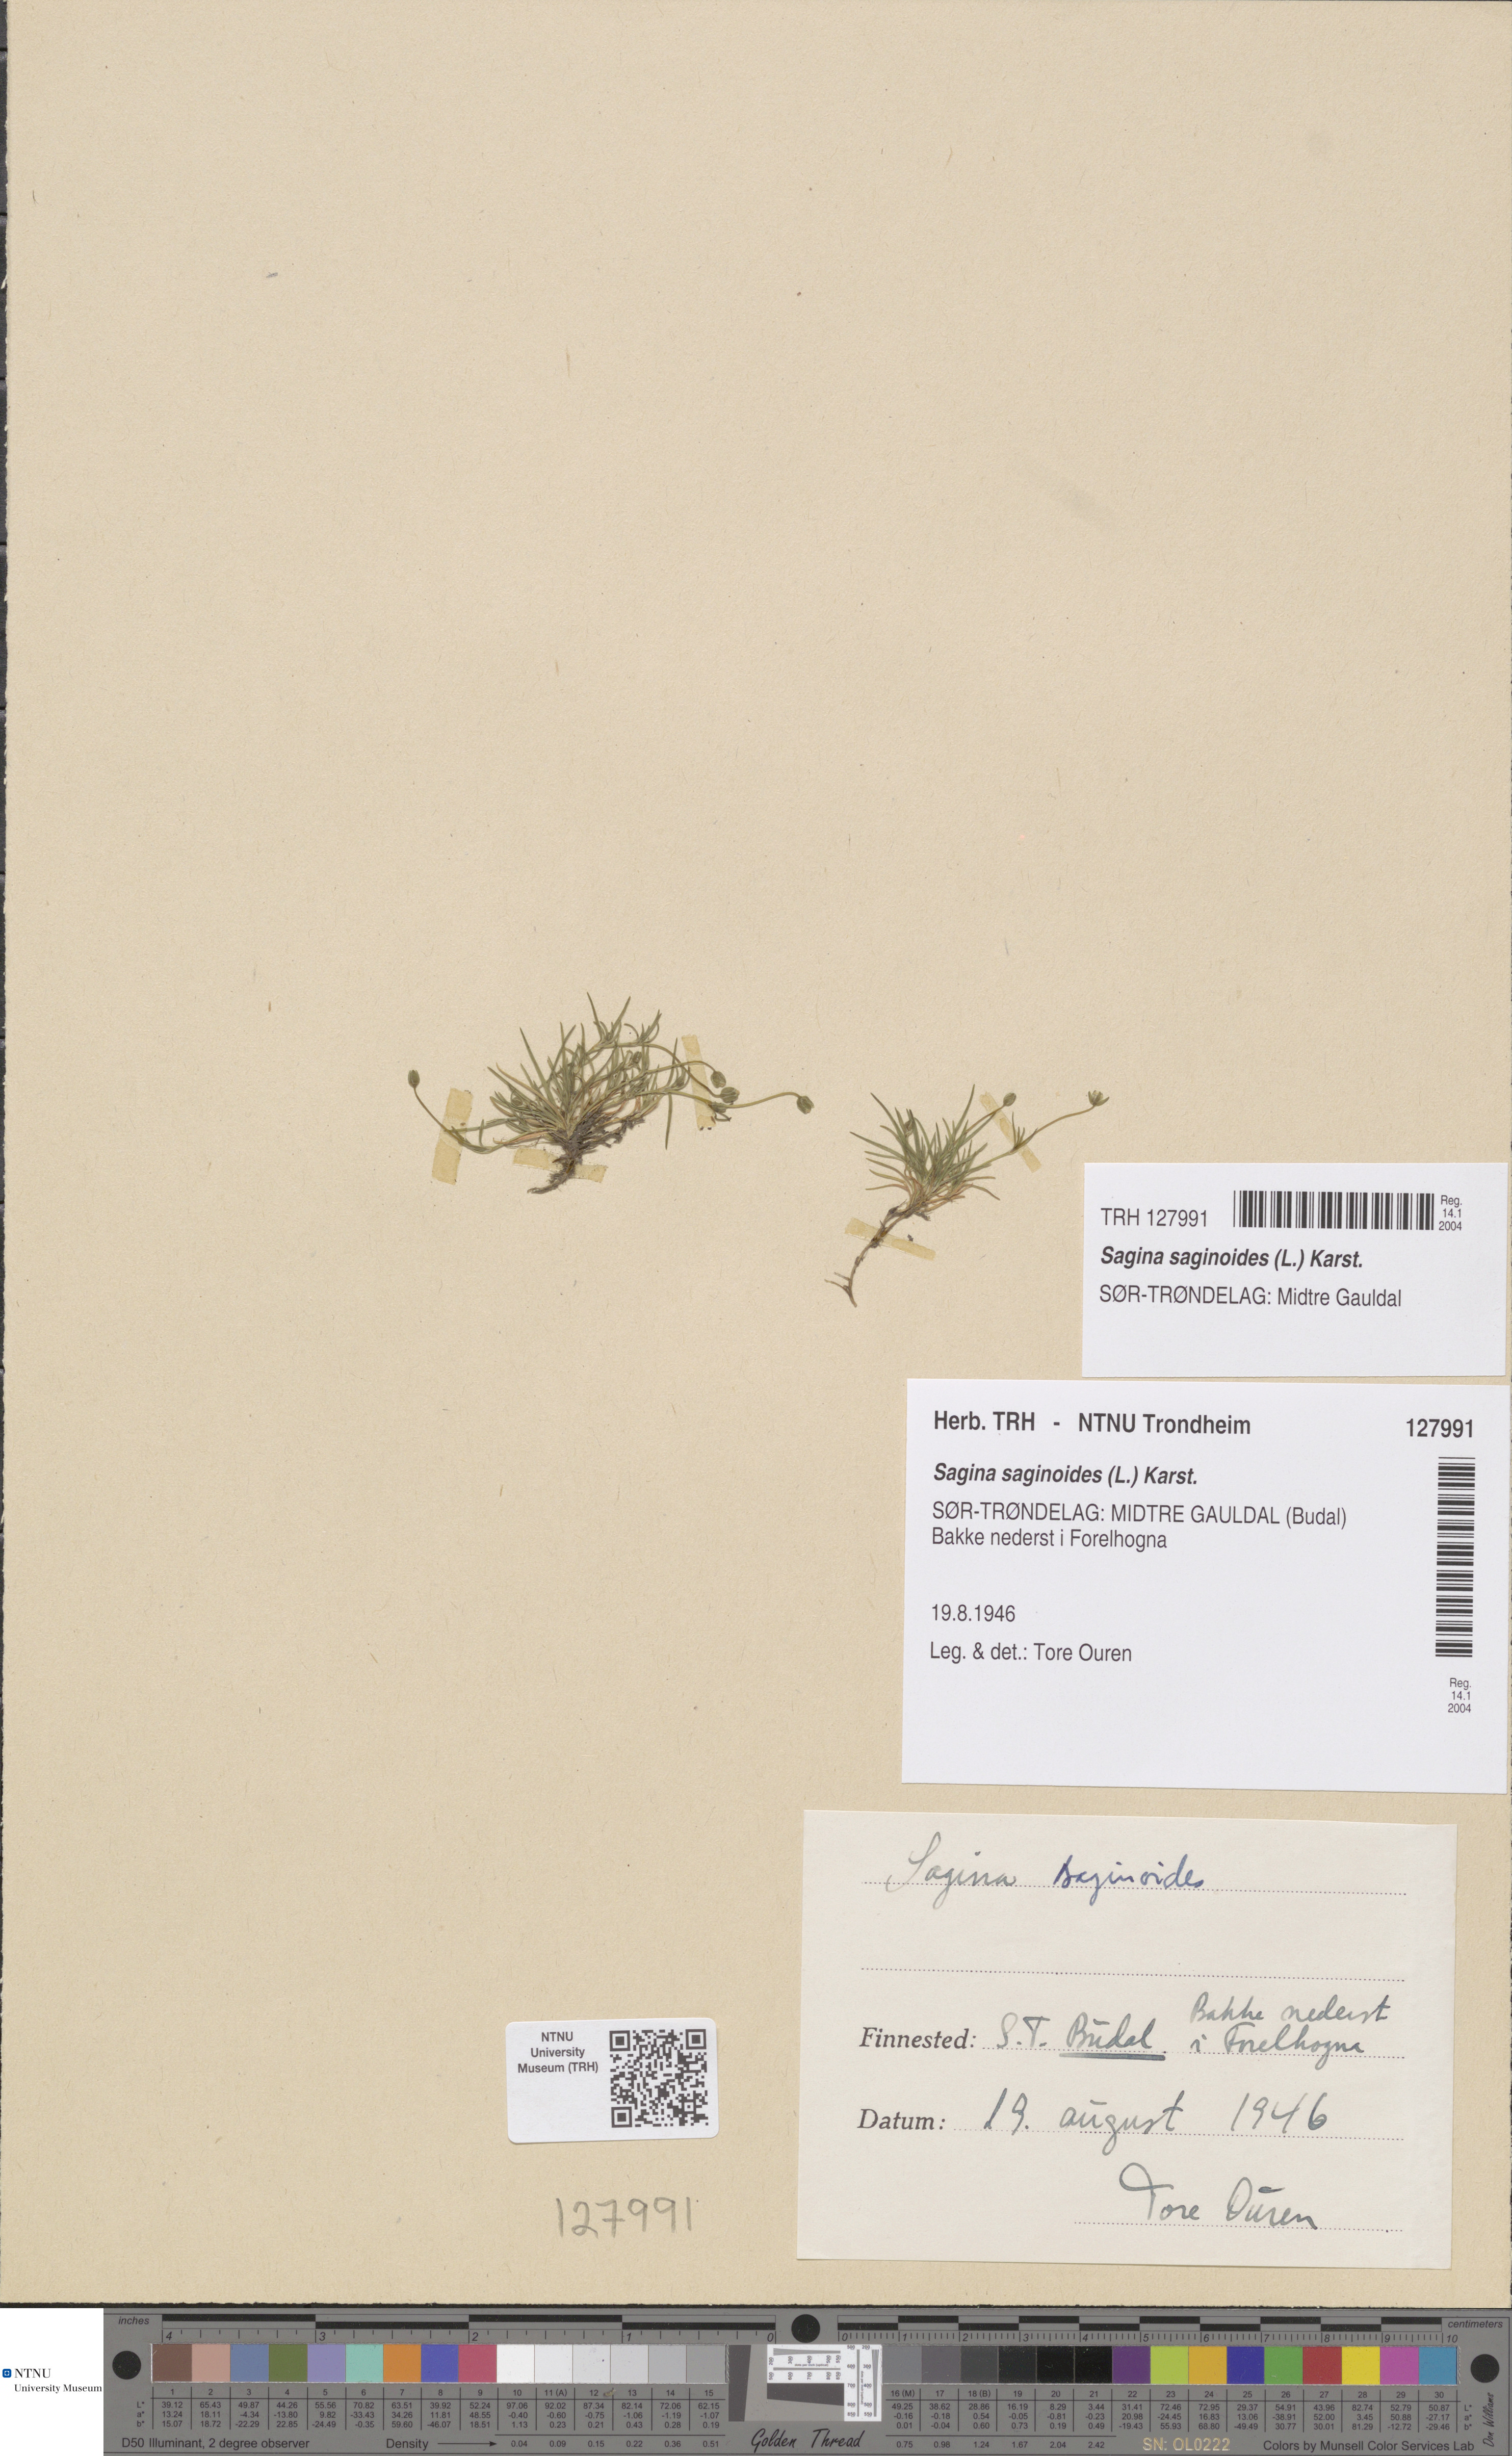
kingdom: Plantae
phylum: Tracheophyta
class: Magnoliopsida
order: Caryophyllales
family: Caryophyllaceae
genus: Sagina
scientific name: Sagina saginoides
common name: Alpine pearlwort
